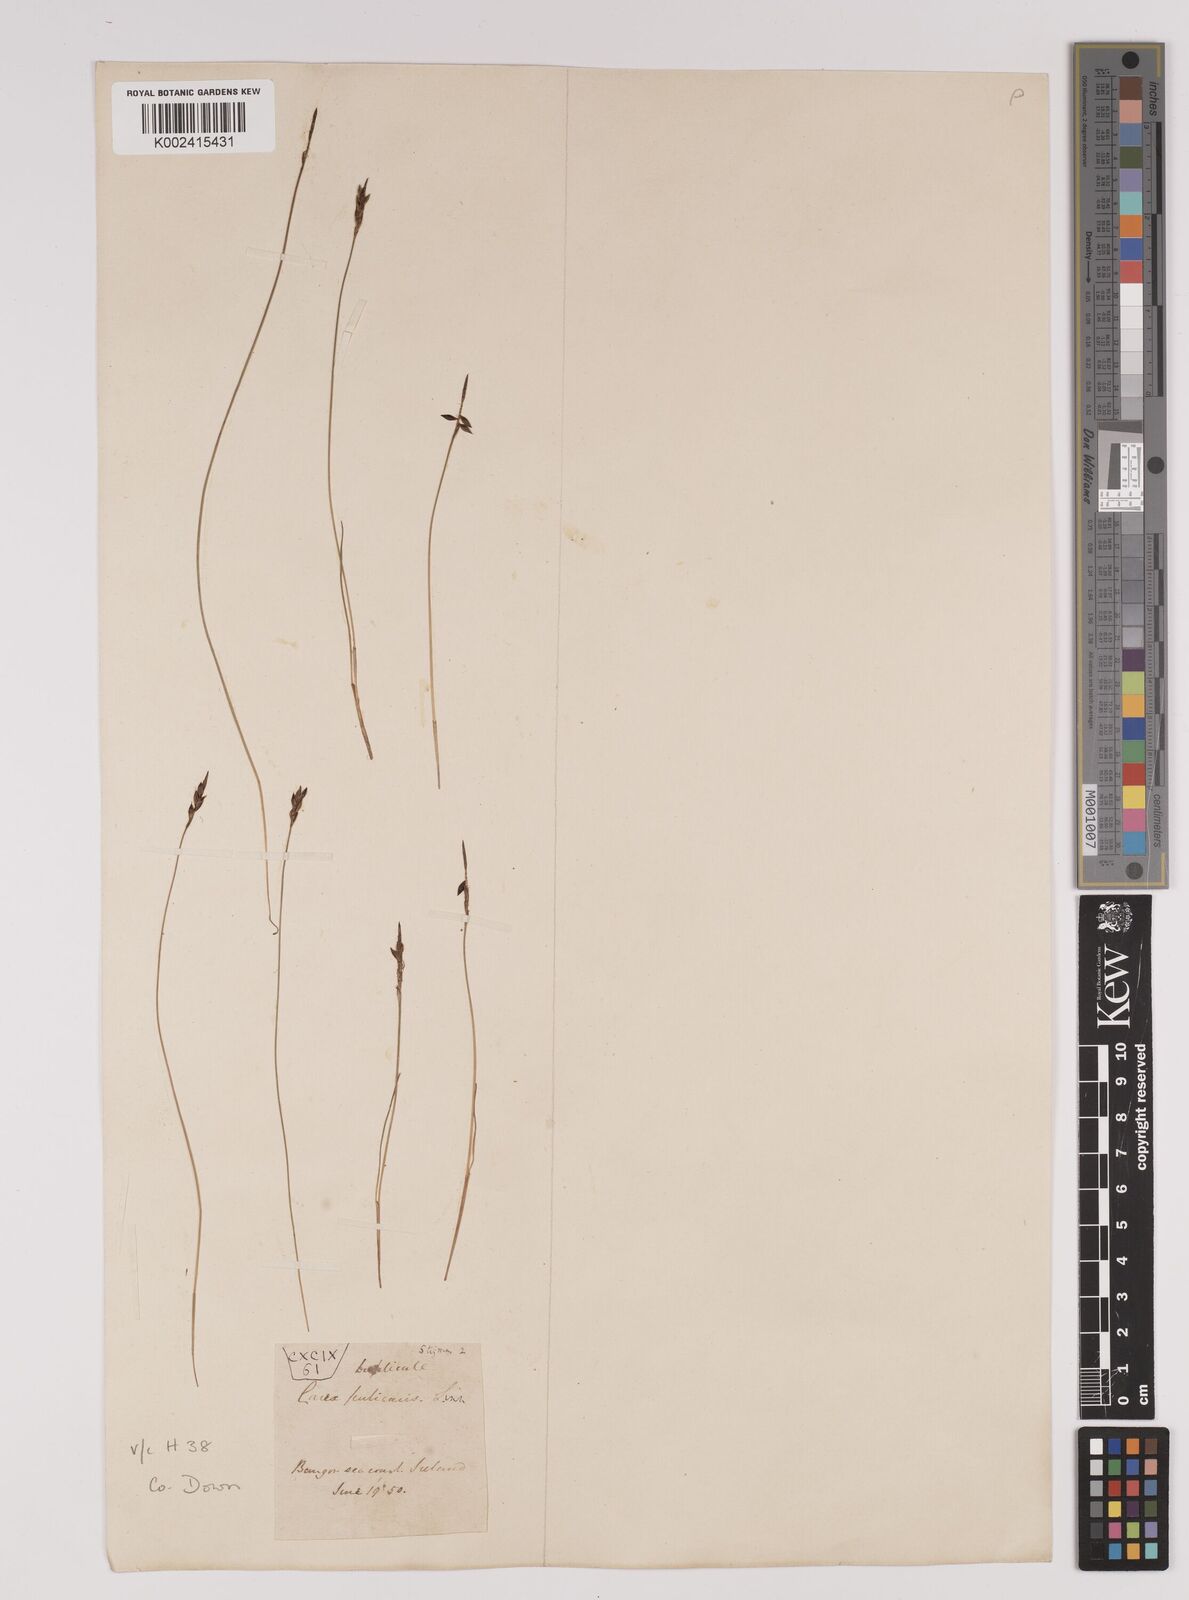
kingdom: Plantae
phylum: Tracheophyta
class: Liliopsida
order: Poales
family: Cyperaceae
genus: Carex
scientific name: Carex pulicaris
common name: Flea sedge
